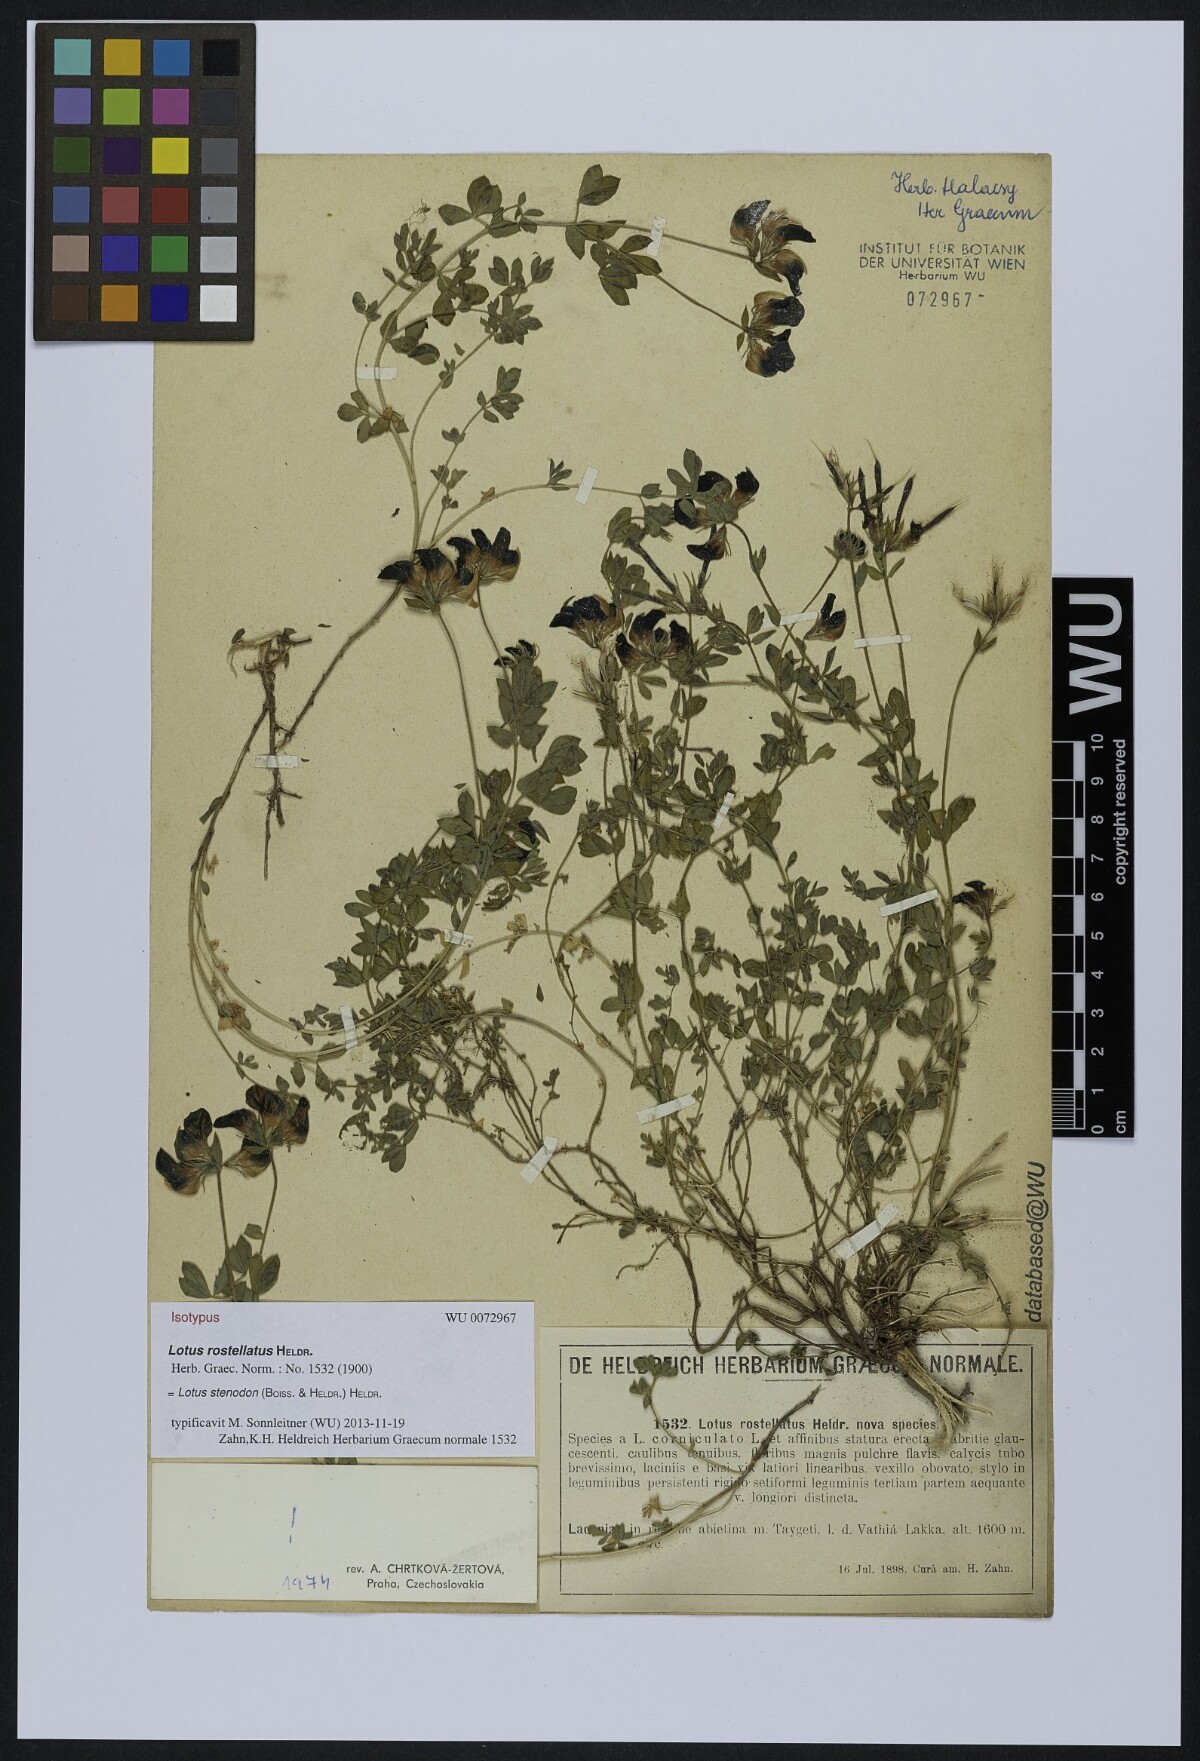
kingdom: Plantae
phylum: Tracheophyta
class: Magnoliopsida
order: Fabales
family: Fabaceae
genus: Lotus
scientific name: Lotus corniculatus
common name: Common bird's-foot-trefoil
